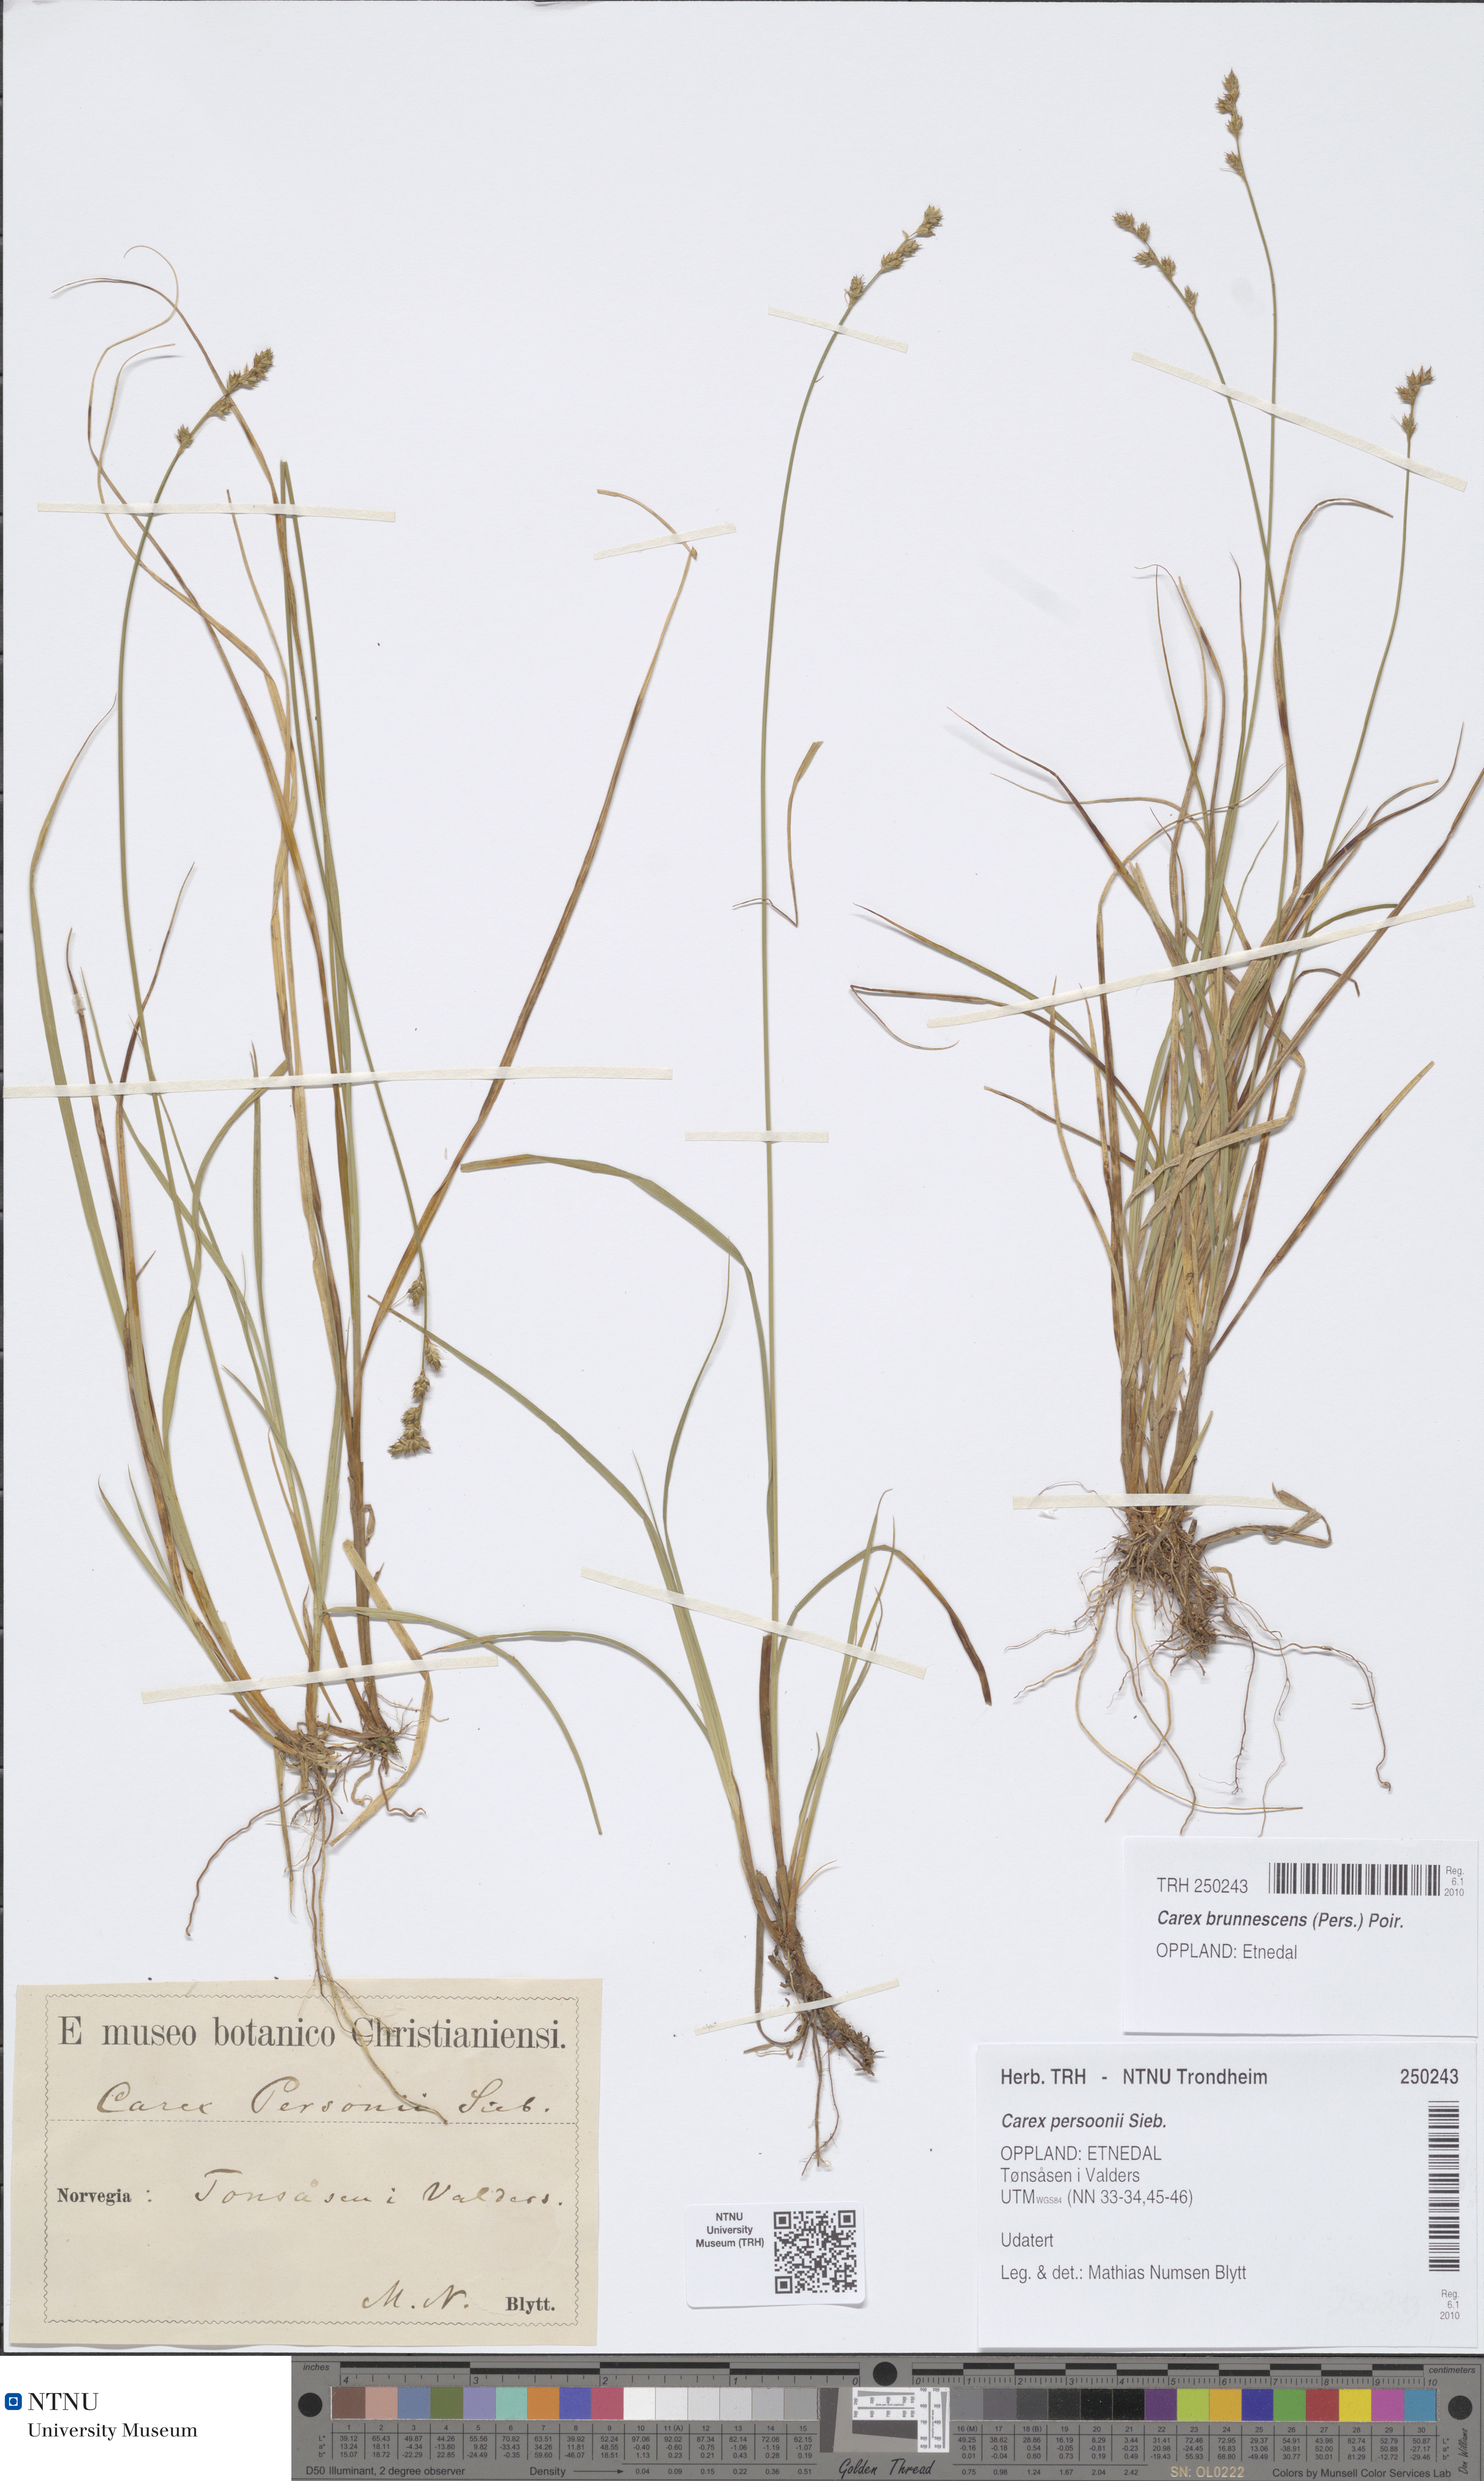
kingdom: Plantae
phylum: Tracheophyta
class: Liliopsida
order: Poales
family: Cyperaceae
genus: Carex
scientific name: Carex brunnescens
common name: Brown sedge
